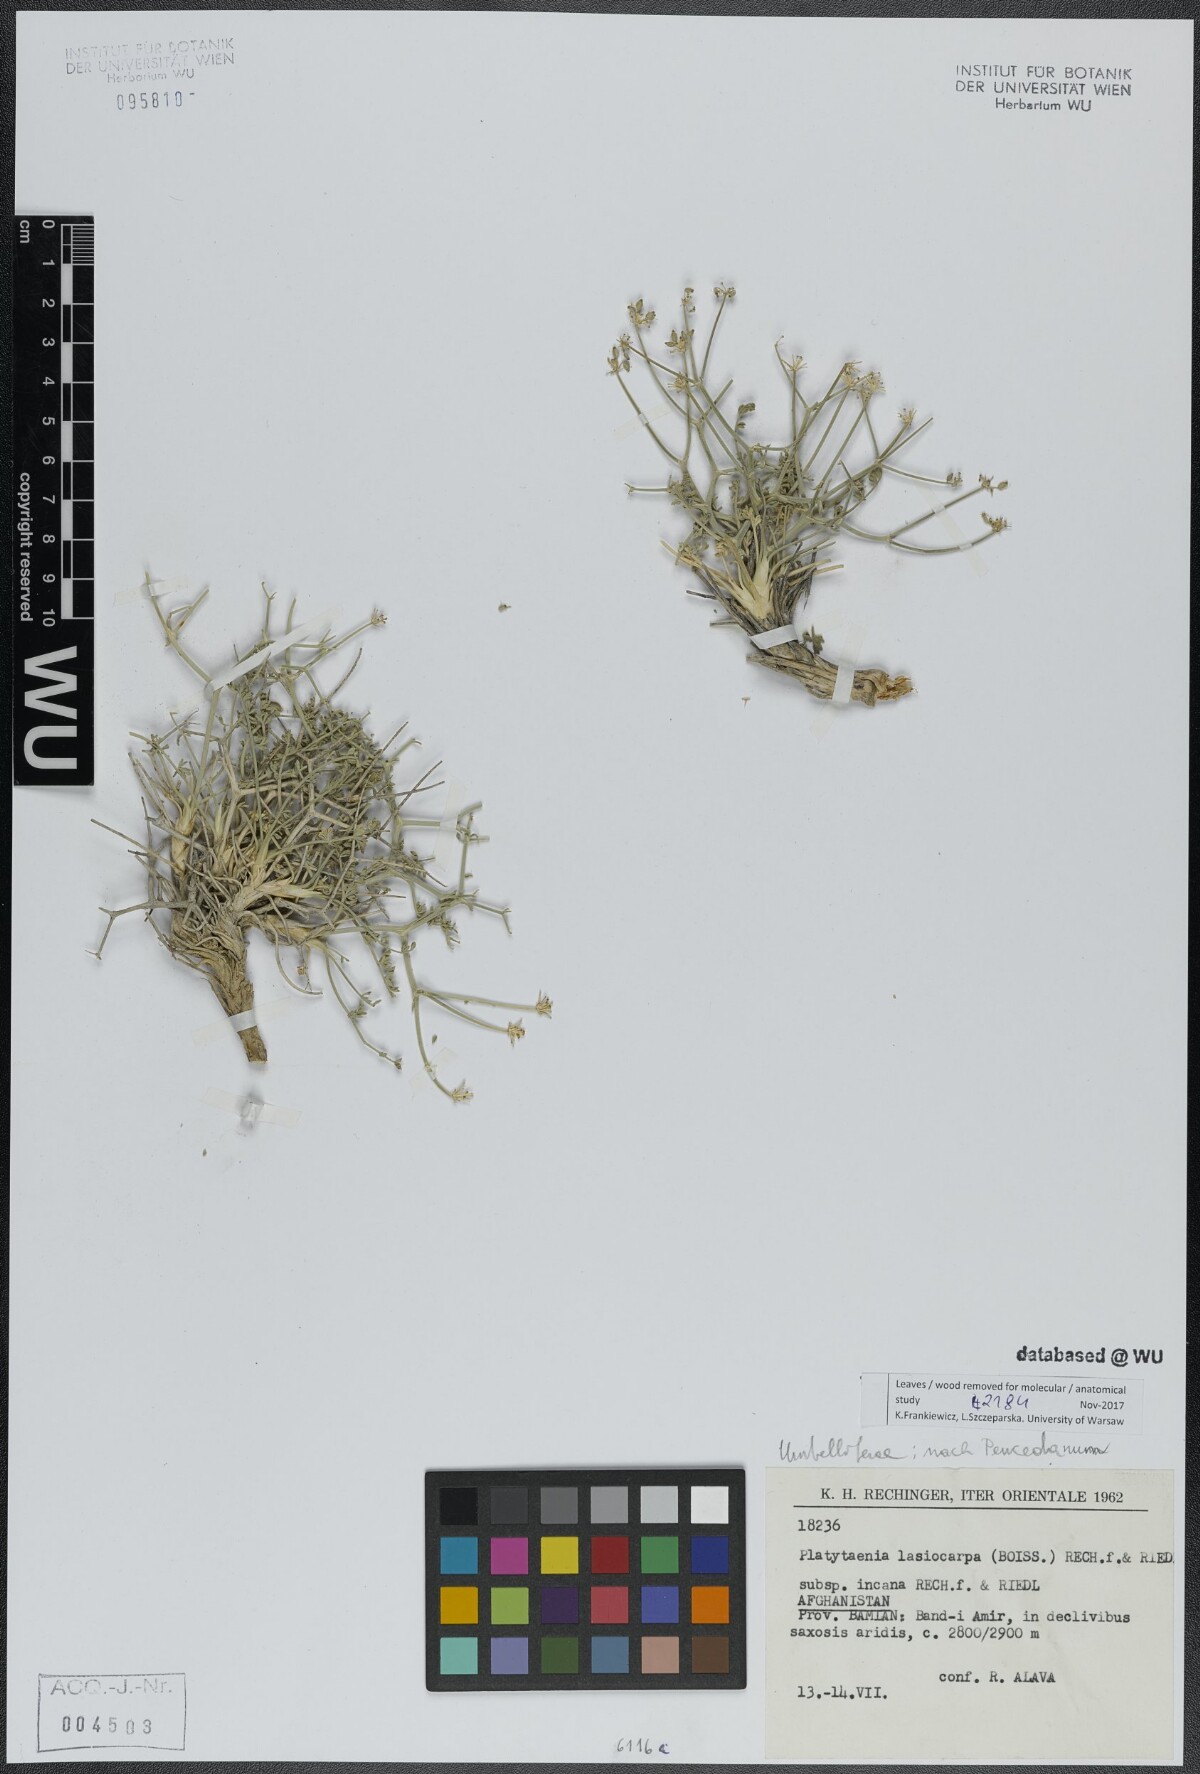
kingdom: Plantae
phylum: Tracheophyta
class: Magnoliopsida
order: Apiales
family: Apiaceae
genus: Semenovia
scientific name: Semenovia lasiocarpa
